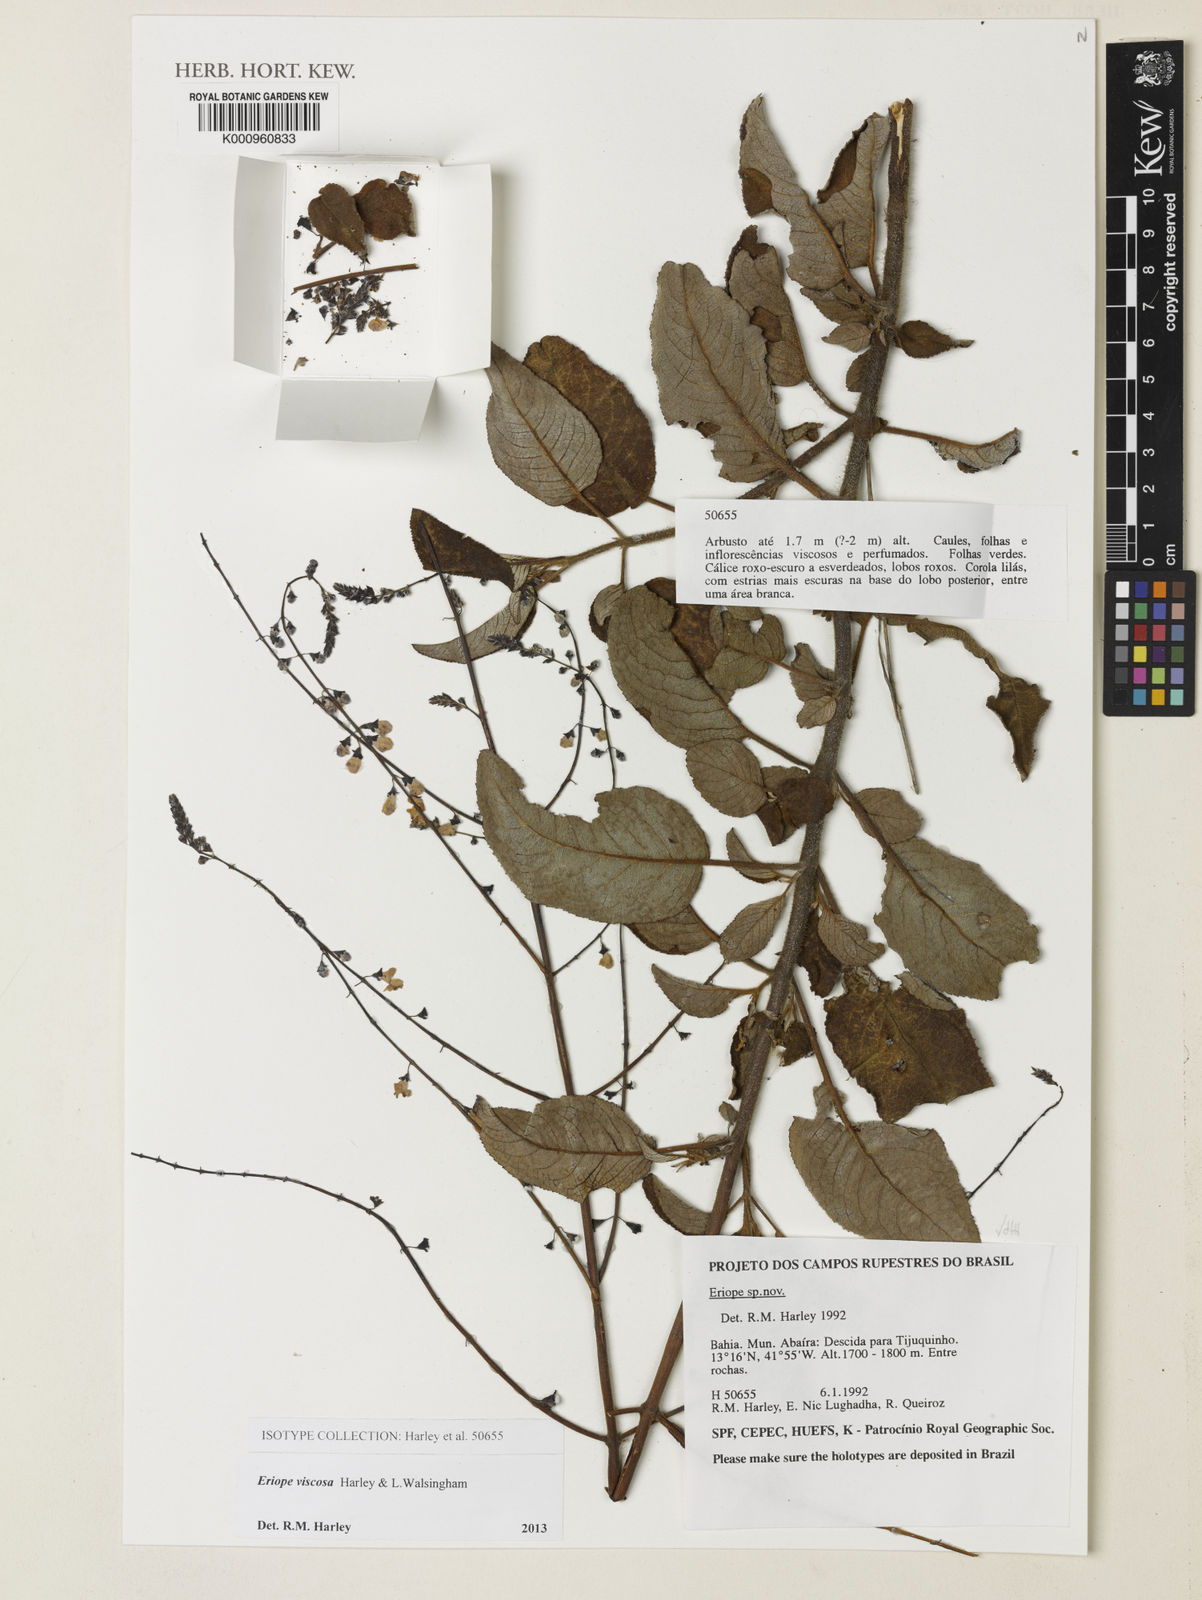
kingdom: Plantae
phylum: Tracheophyta
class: Magnoliopsida
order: Lamiales
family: Lamiaceae
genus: Eriope
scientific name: Eriope viscosa
